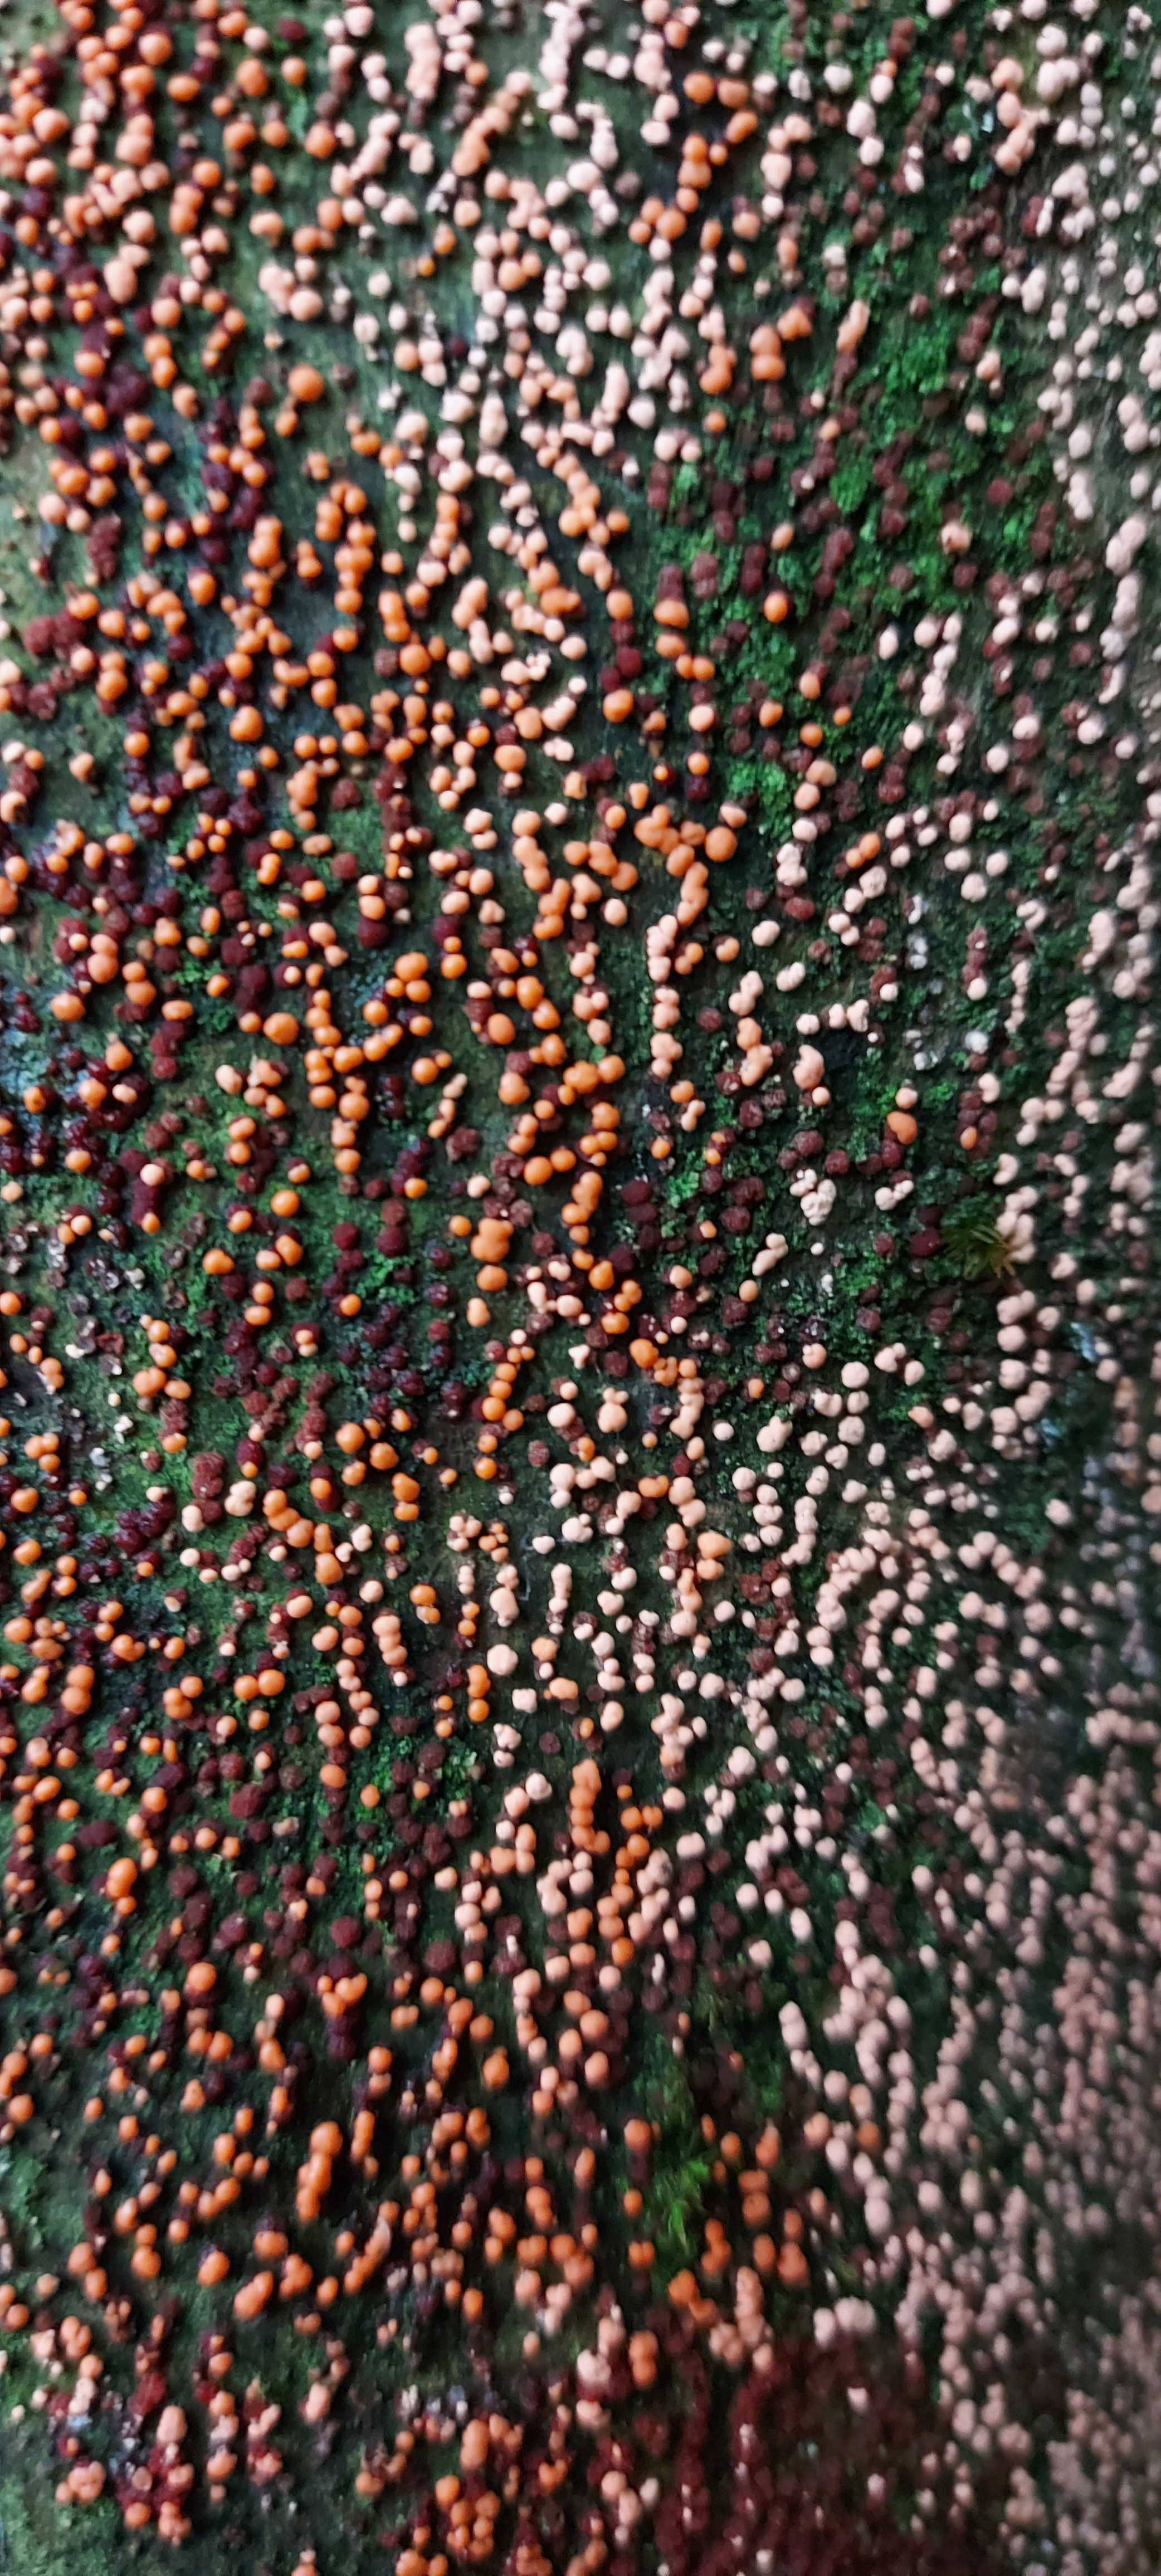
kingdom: Fungi
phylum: Ascomycota
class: Sordariomycetes
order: Hypocreales
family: Nectriaceae
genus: Nectria
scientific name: Nectria cinnabarina
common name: almindelig cinnobersvamp
